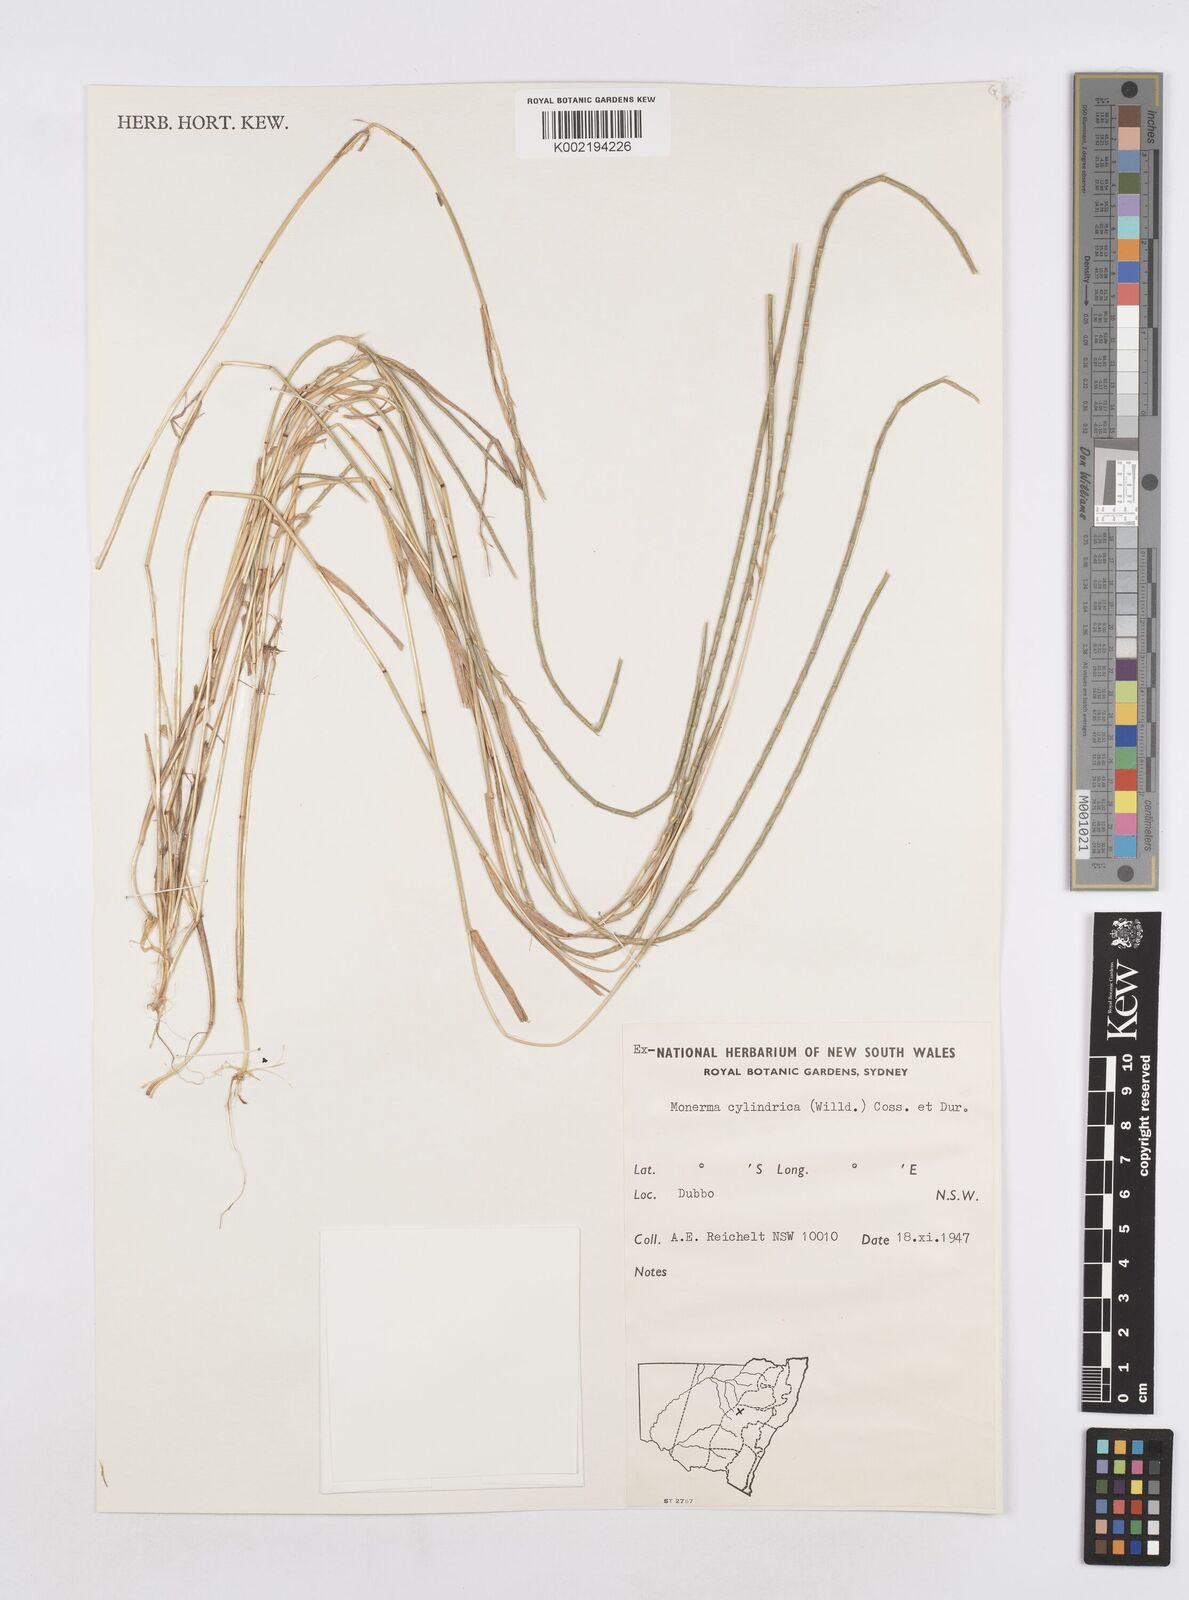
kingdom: Plantae
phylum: Tracheophyta
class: Liliopsida
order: Poales
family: Poaceae
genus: Parapholis
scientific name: Parapholis cylindrica
